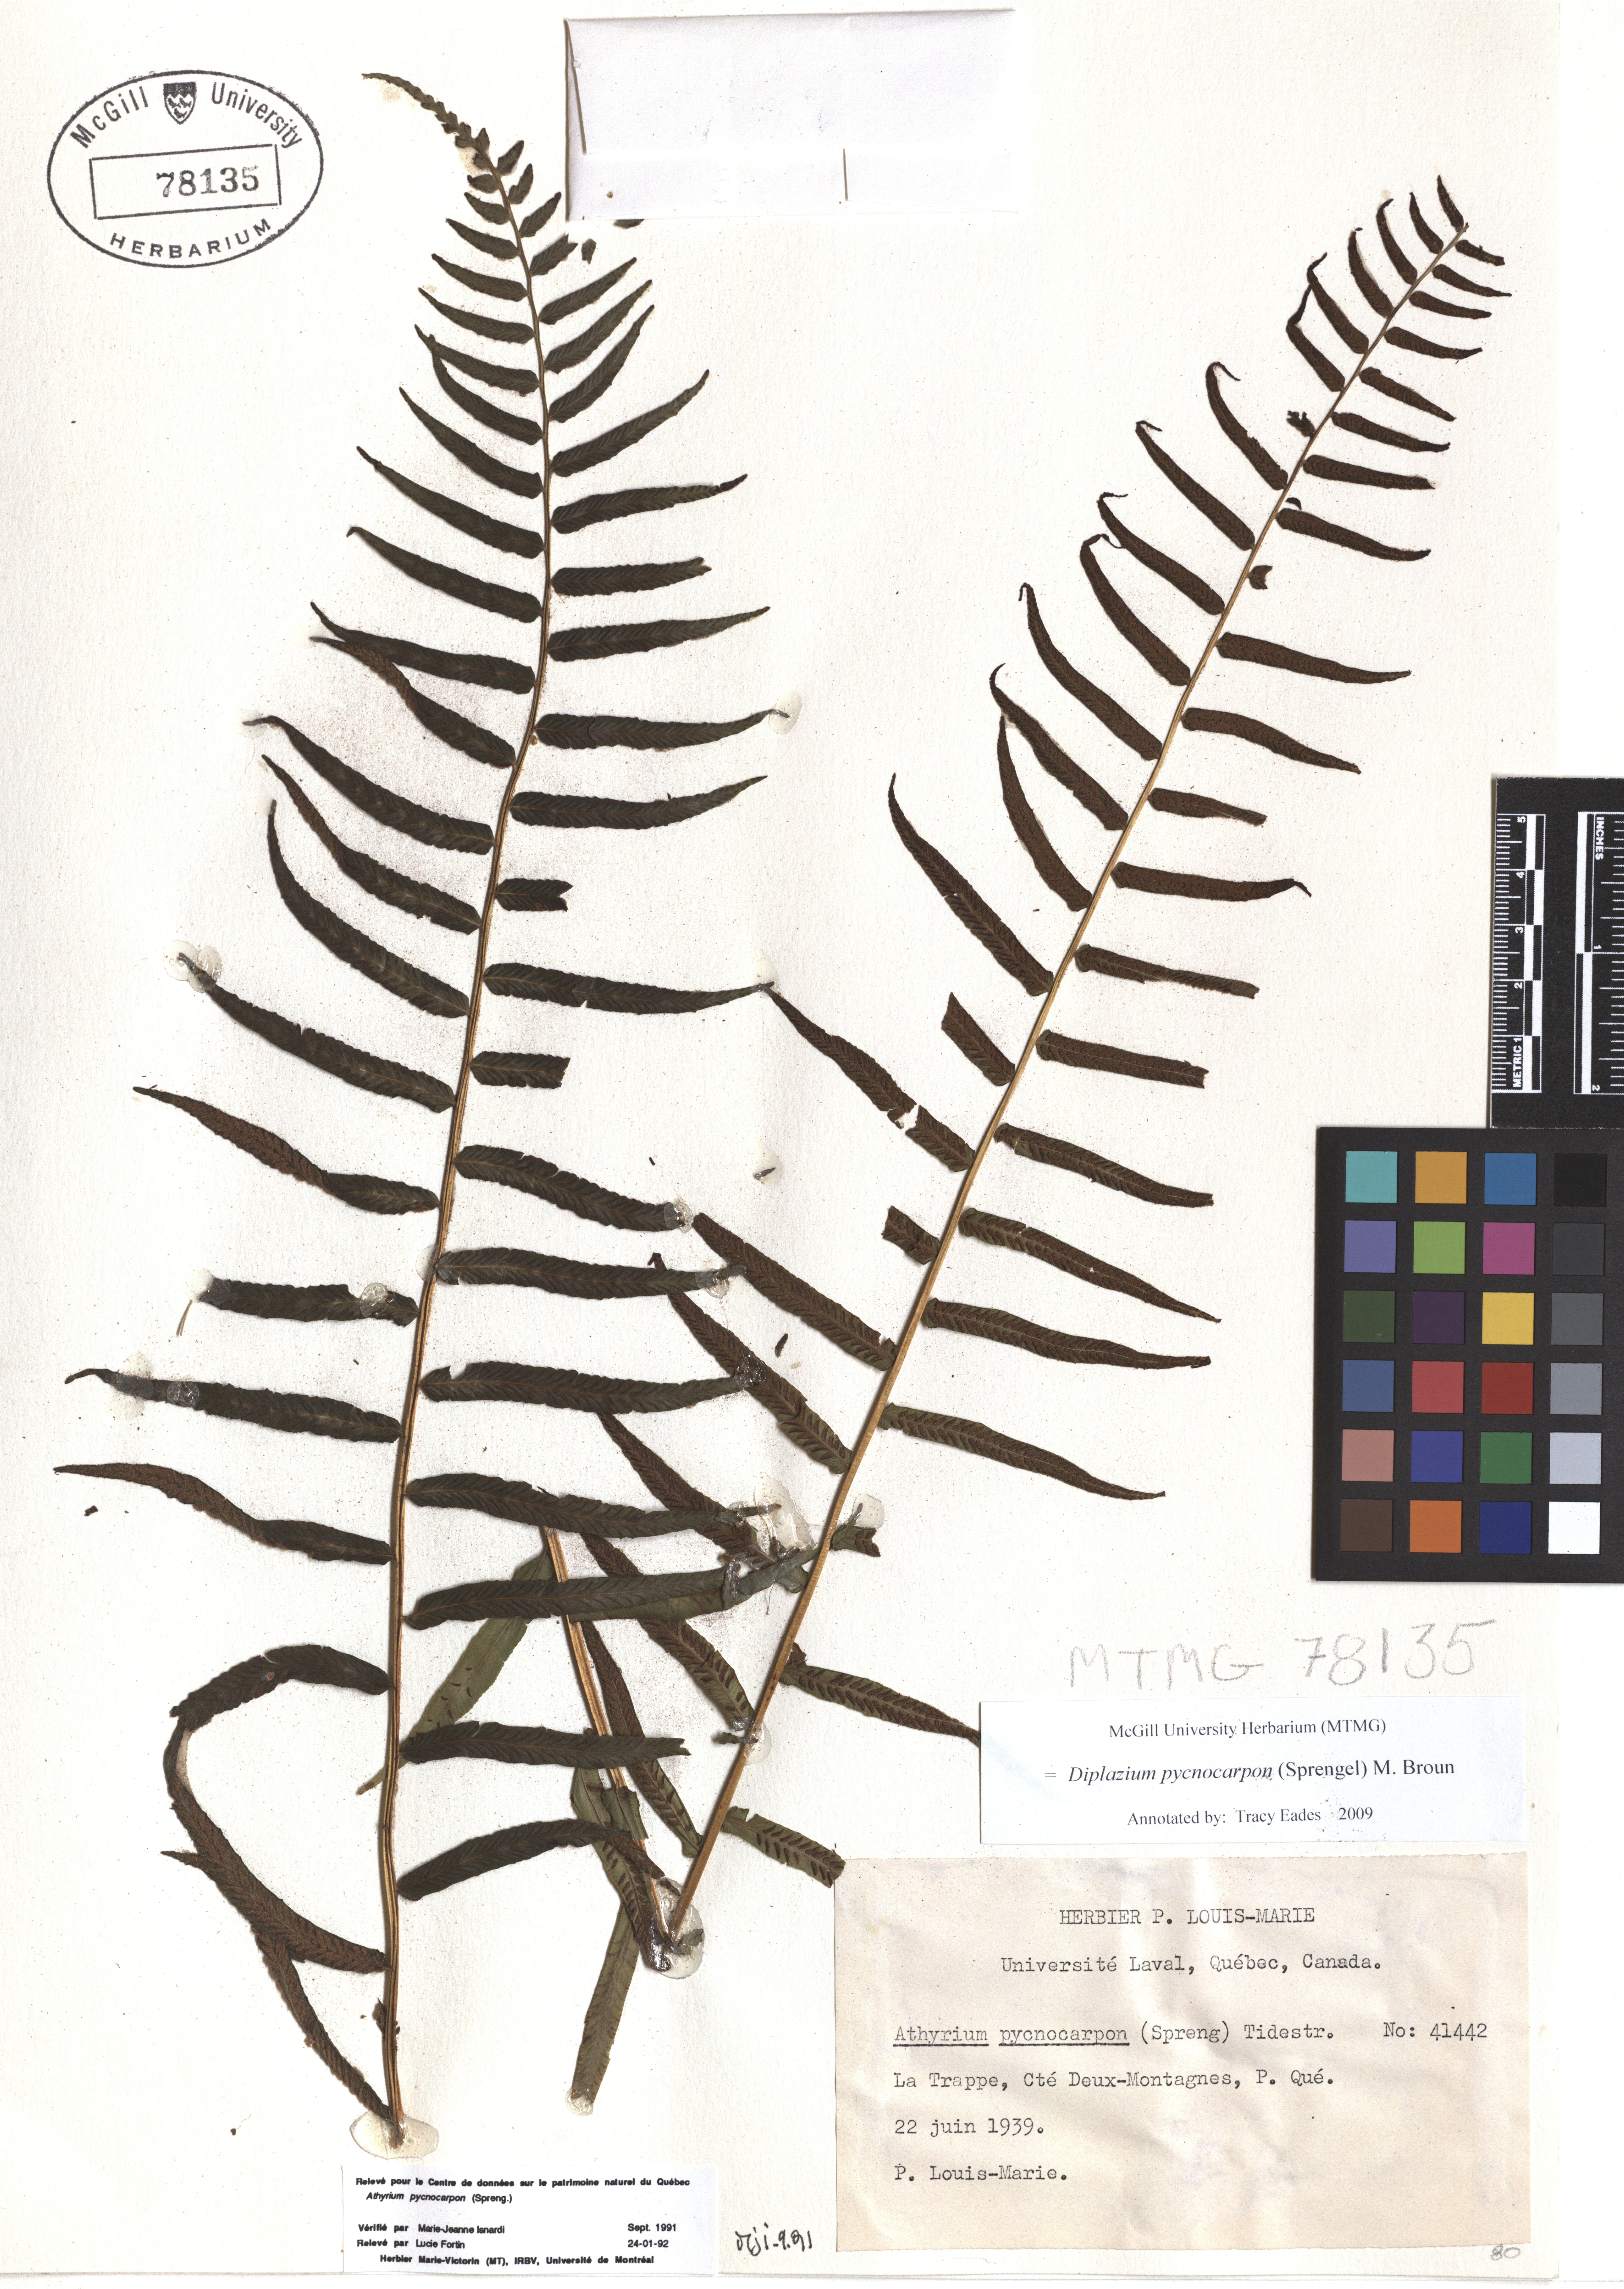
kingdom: Plantae
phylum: Tracheophyta
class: Polypodiopsida
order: Polypodiales
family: Diplaziopsidaceae
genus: Homalosorus
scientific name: Homalosorus pycnocarpos
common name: Glade fern
